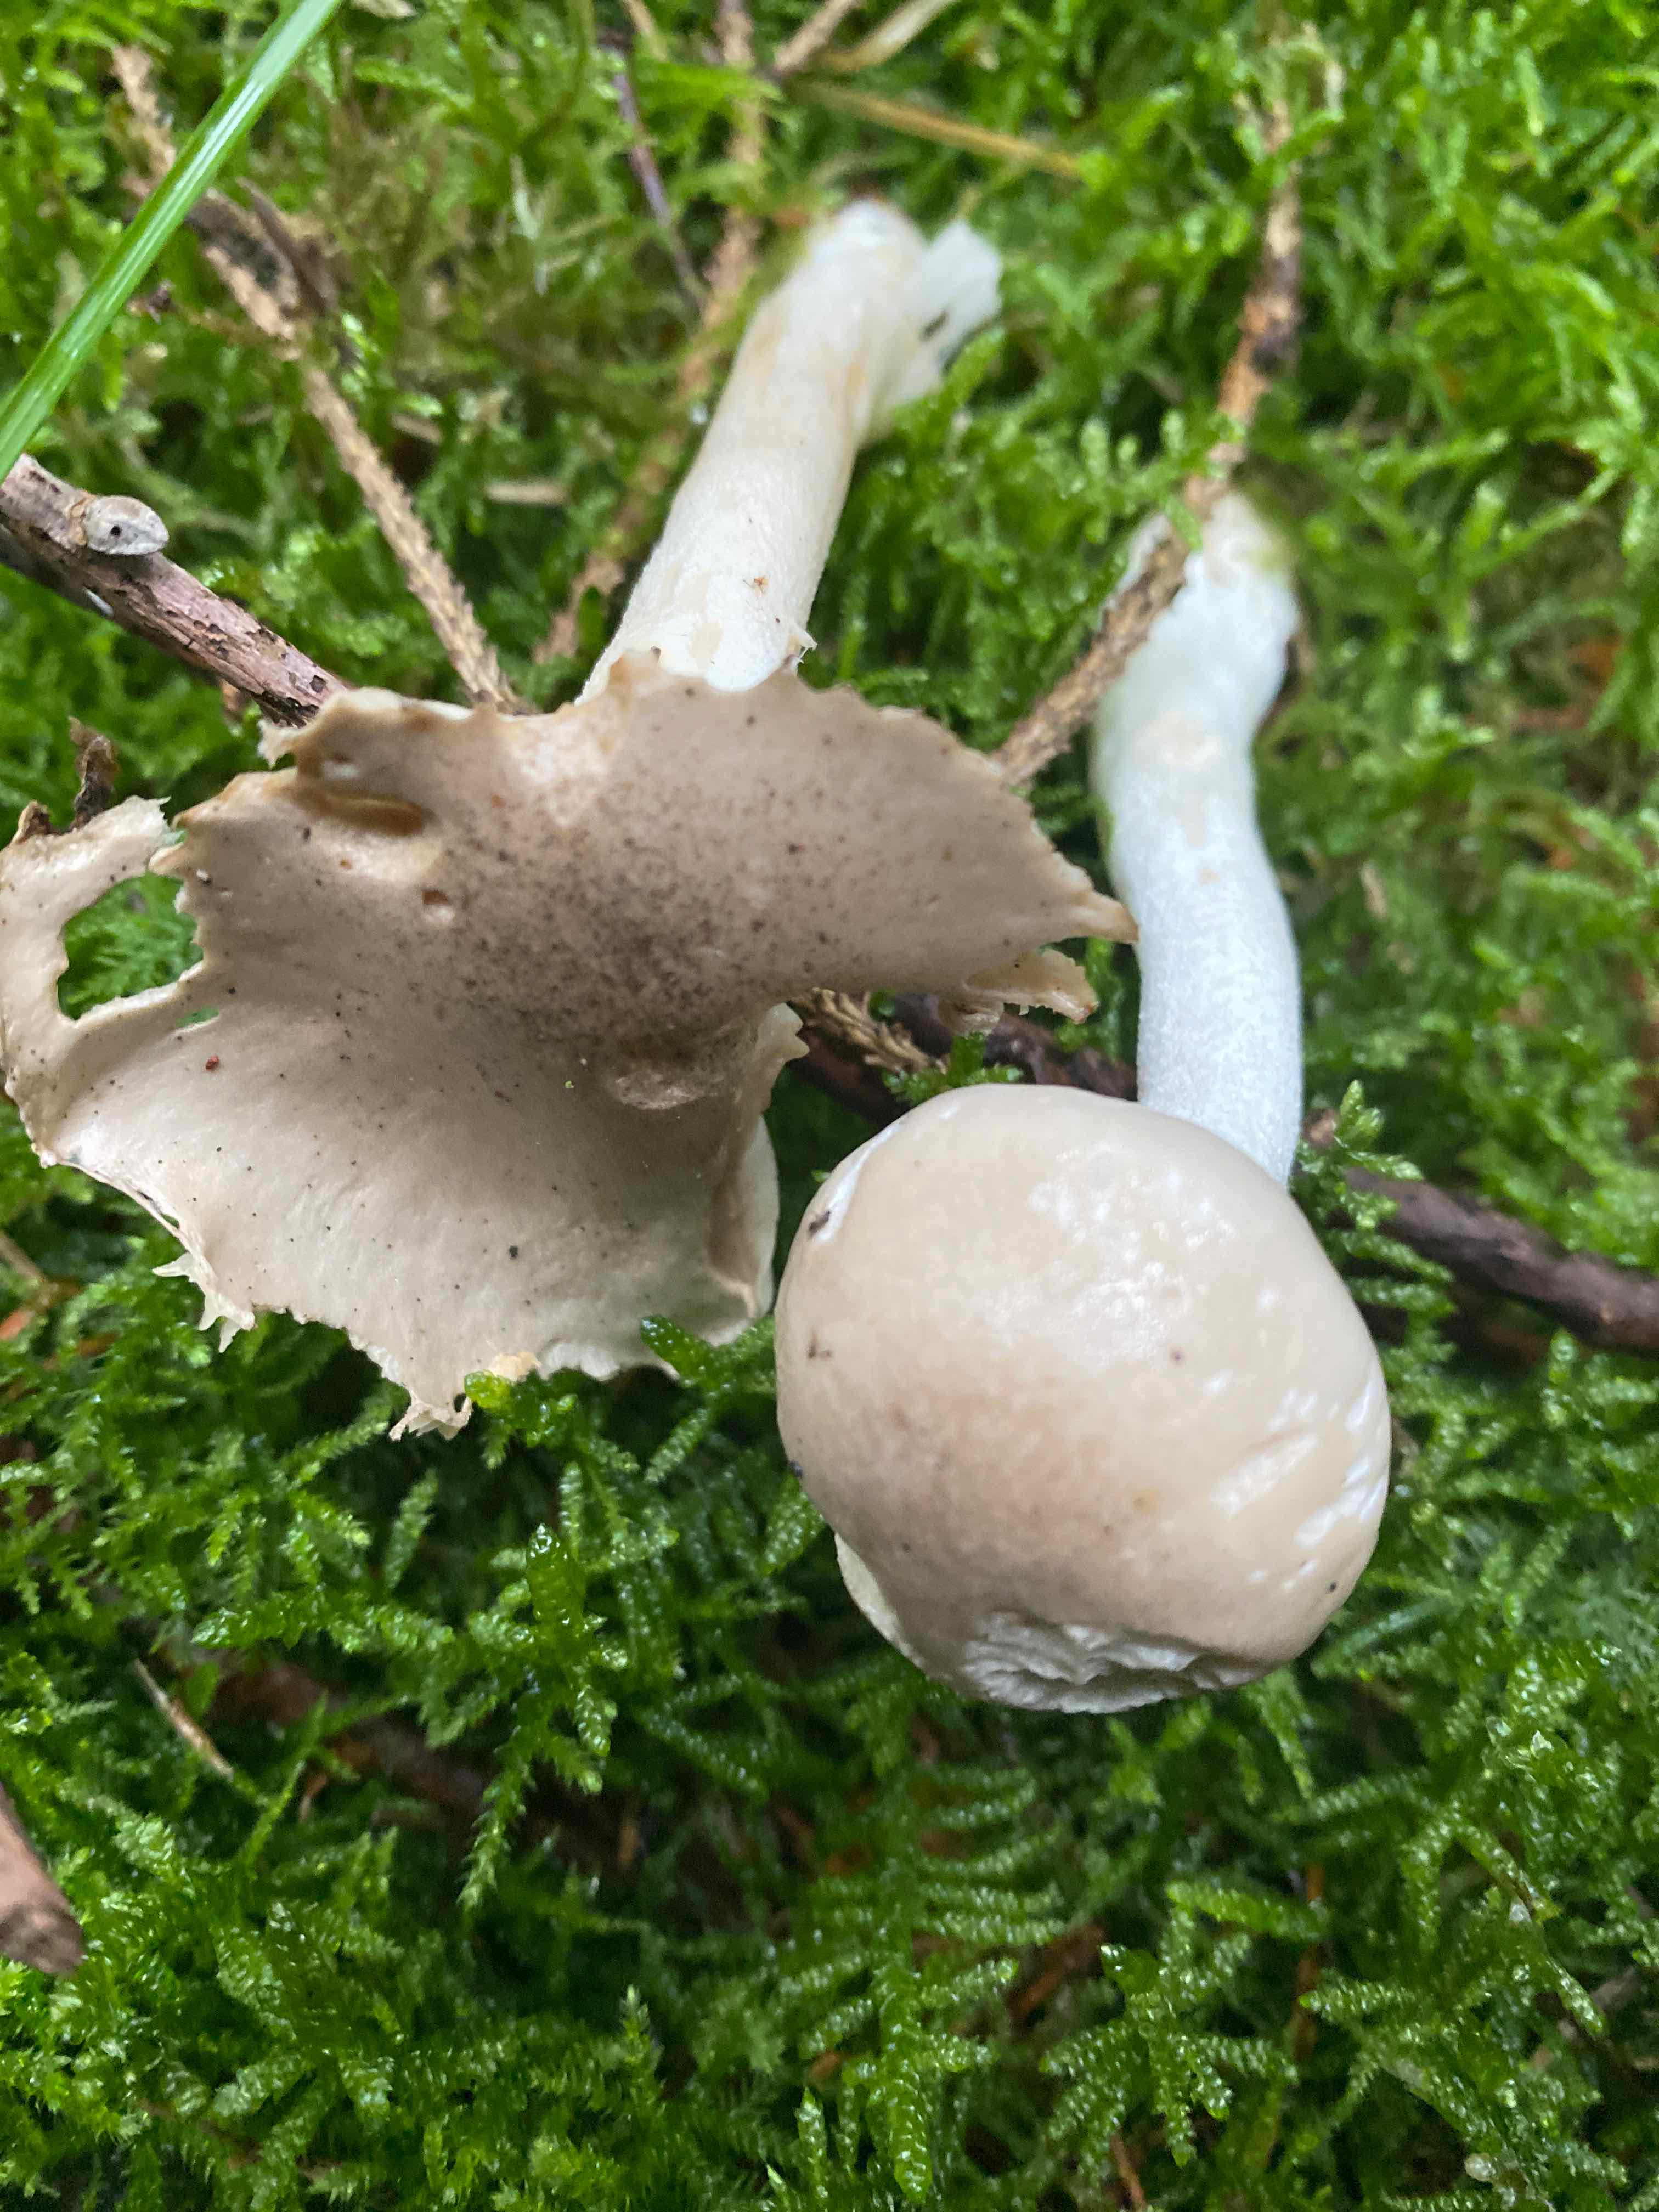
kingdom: Fungi
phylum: Basidiomycota
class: Agaricomycetes
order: Agaricales
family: Hygrophoraceae
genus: Hygrophorus
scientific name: Hygrophorus agathosmus
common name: vellugtende sneglehat
